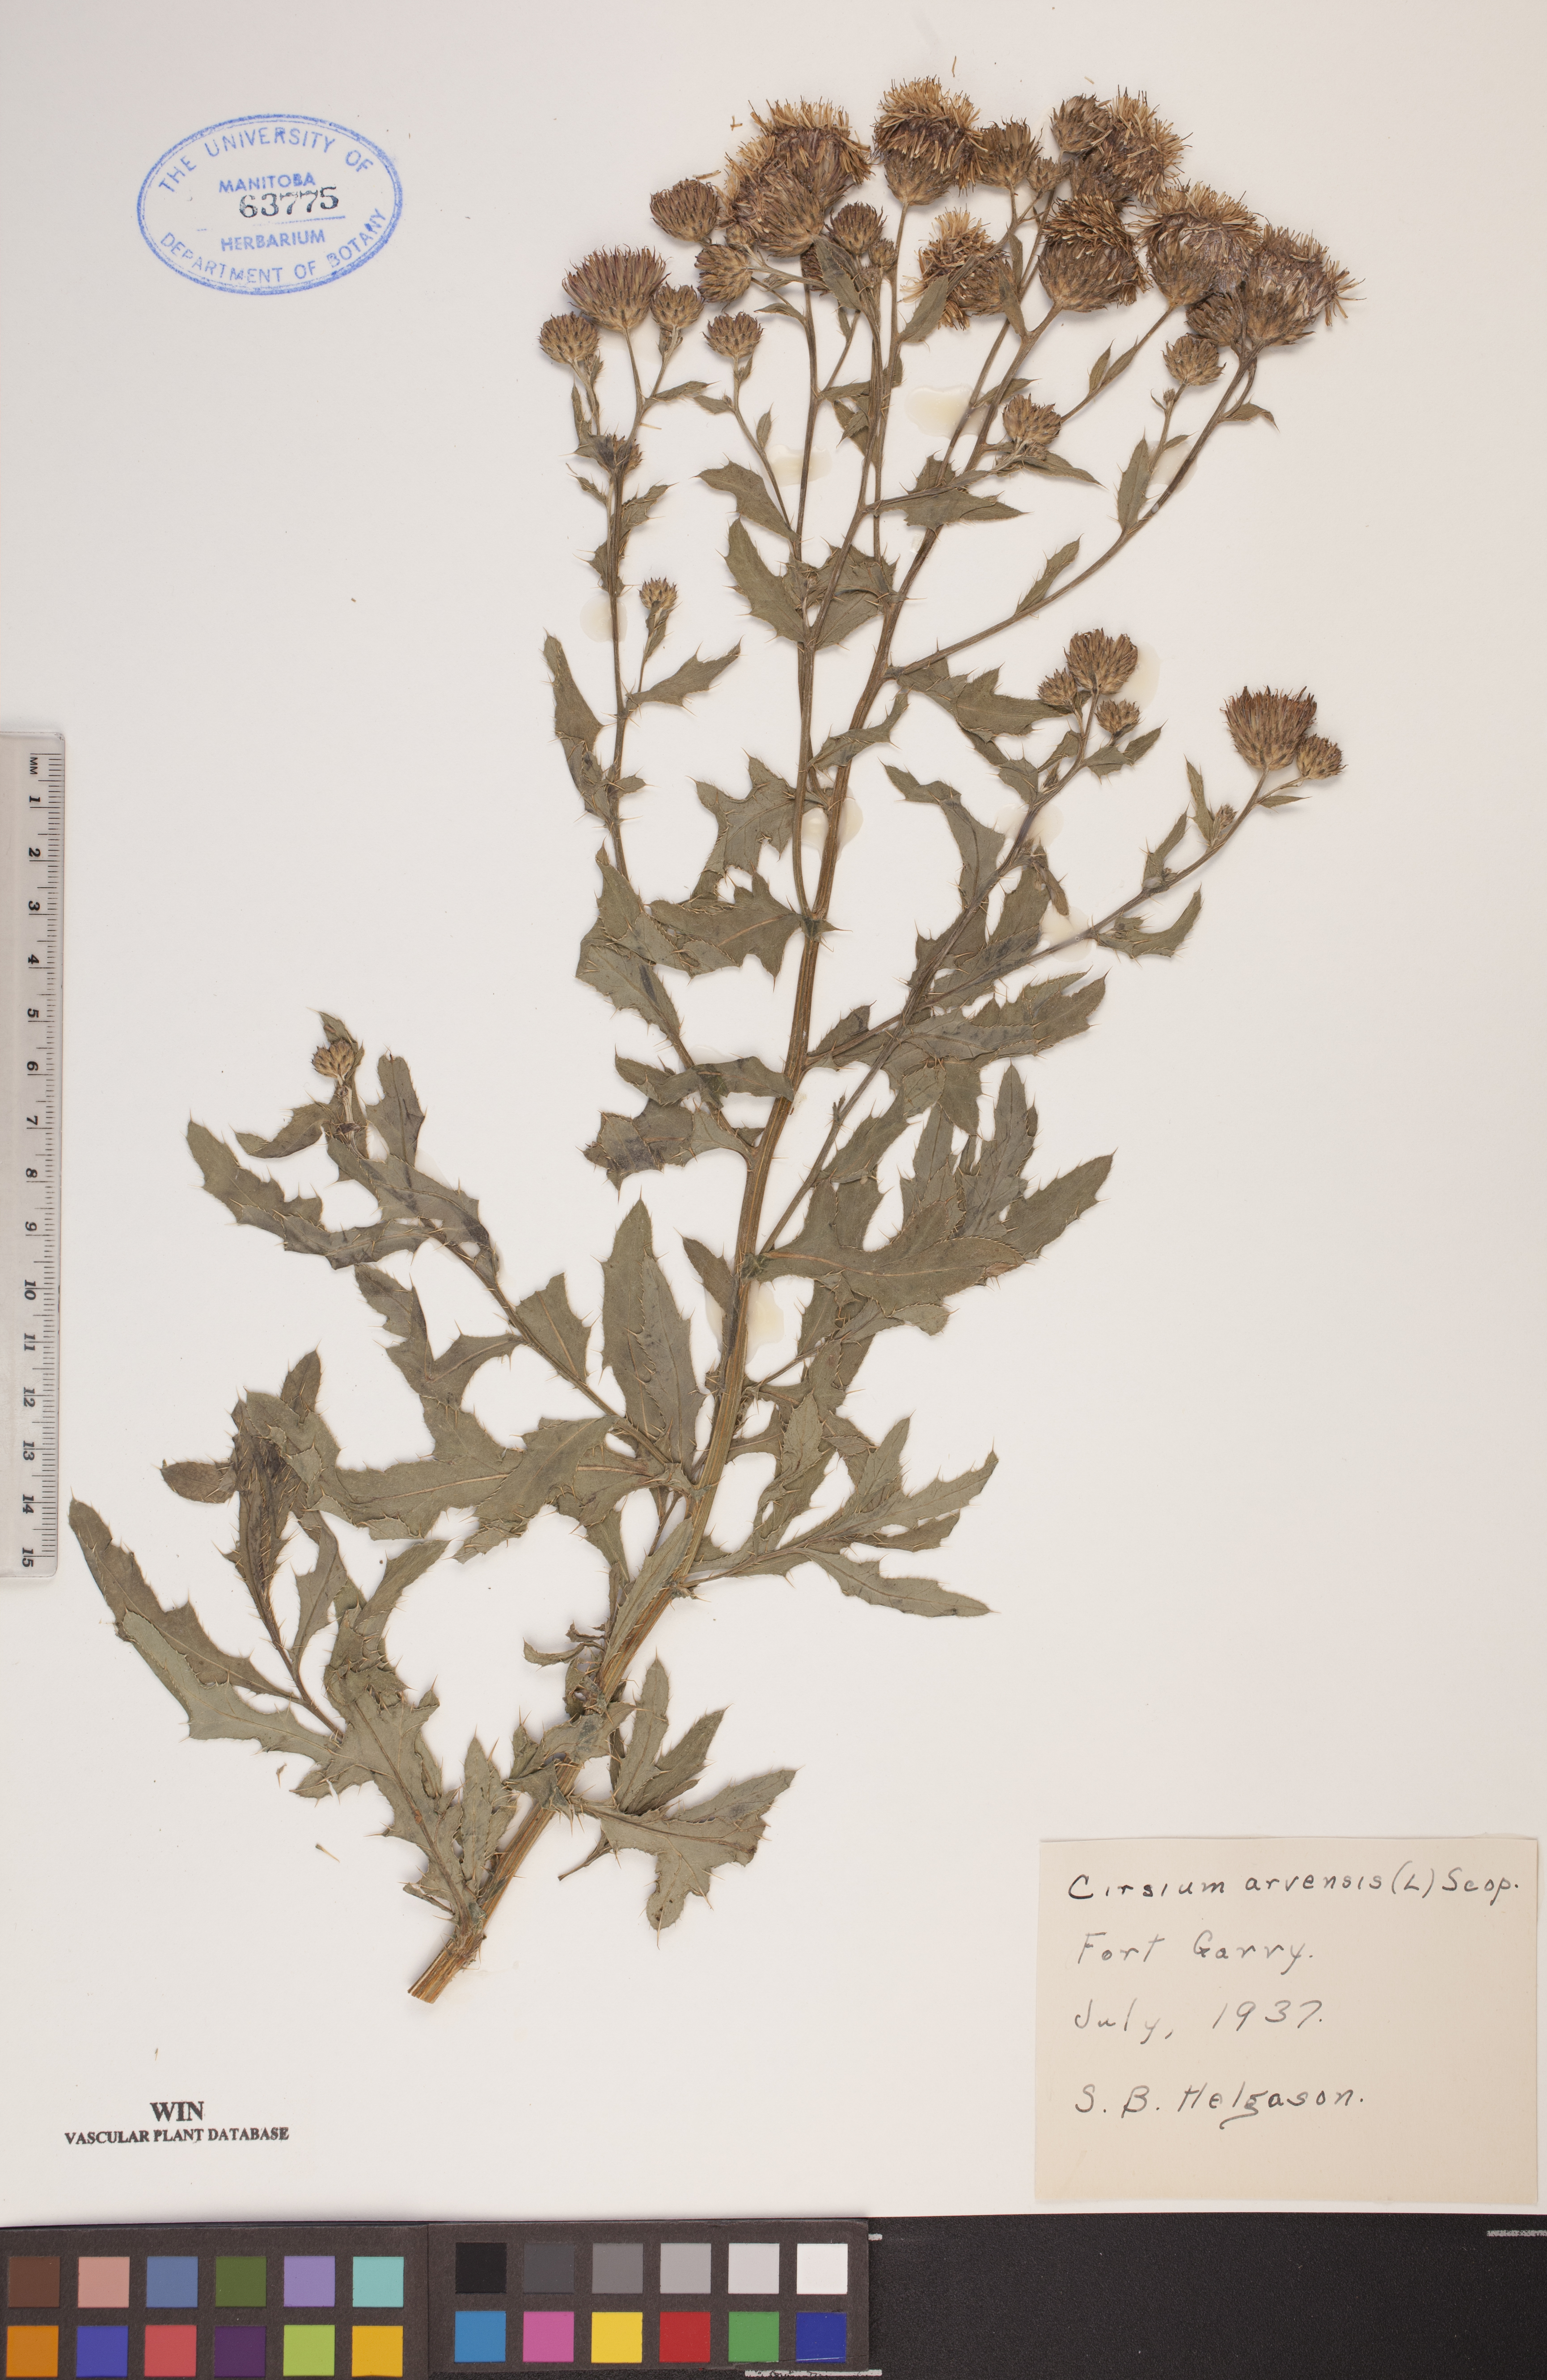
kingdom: Plantae
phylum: Tracheophyta
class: Magnoliopsida
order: Asterales
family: Asteraceae
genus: Cirsium
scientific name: Cirsium arvense
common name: Creeping thistle
